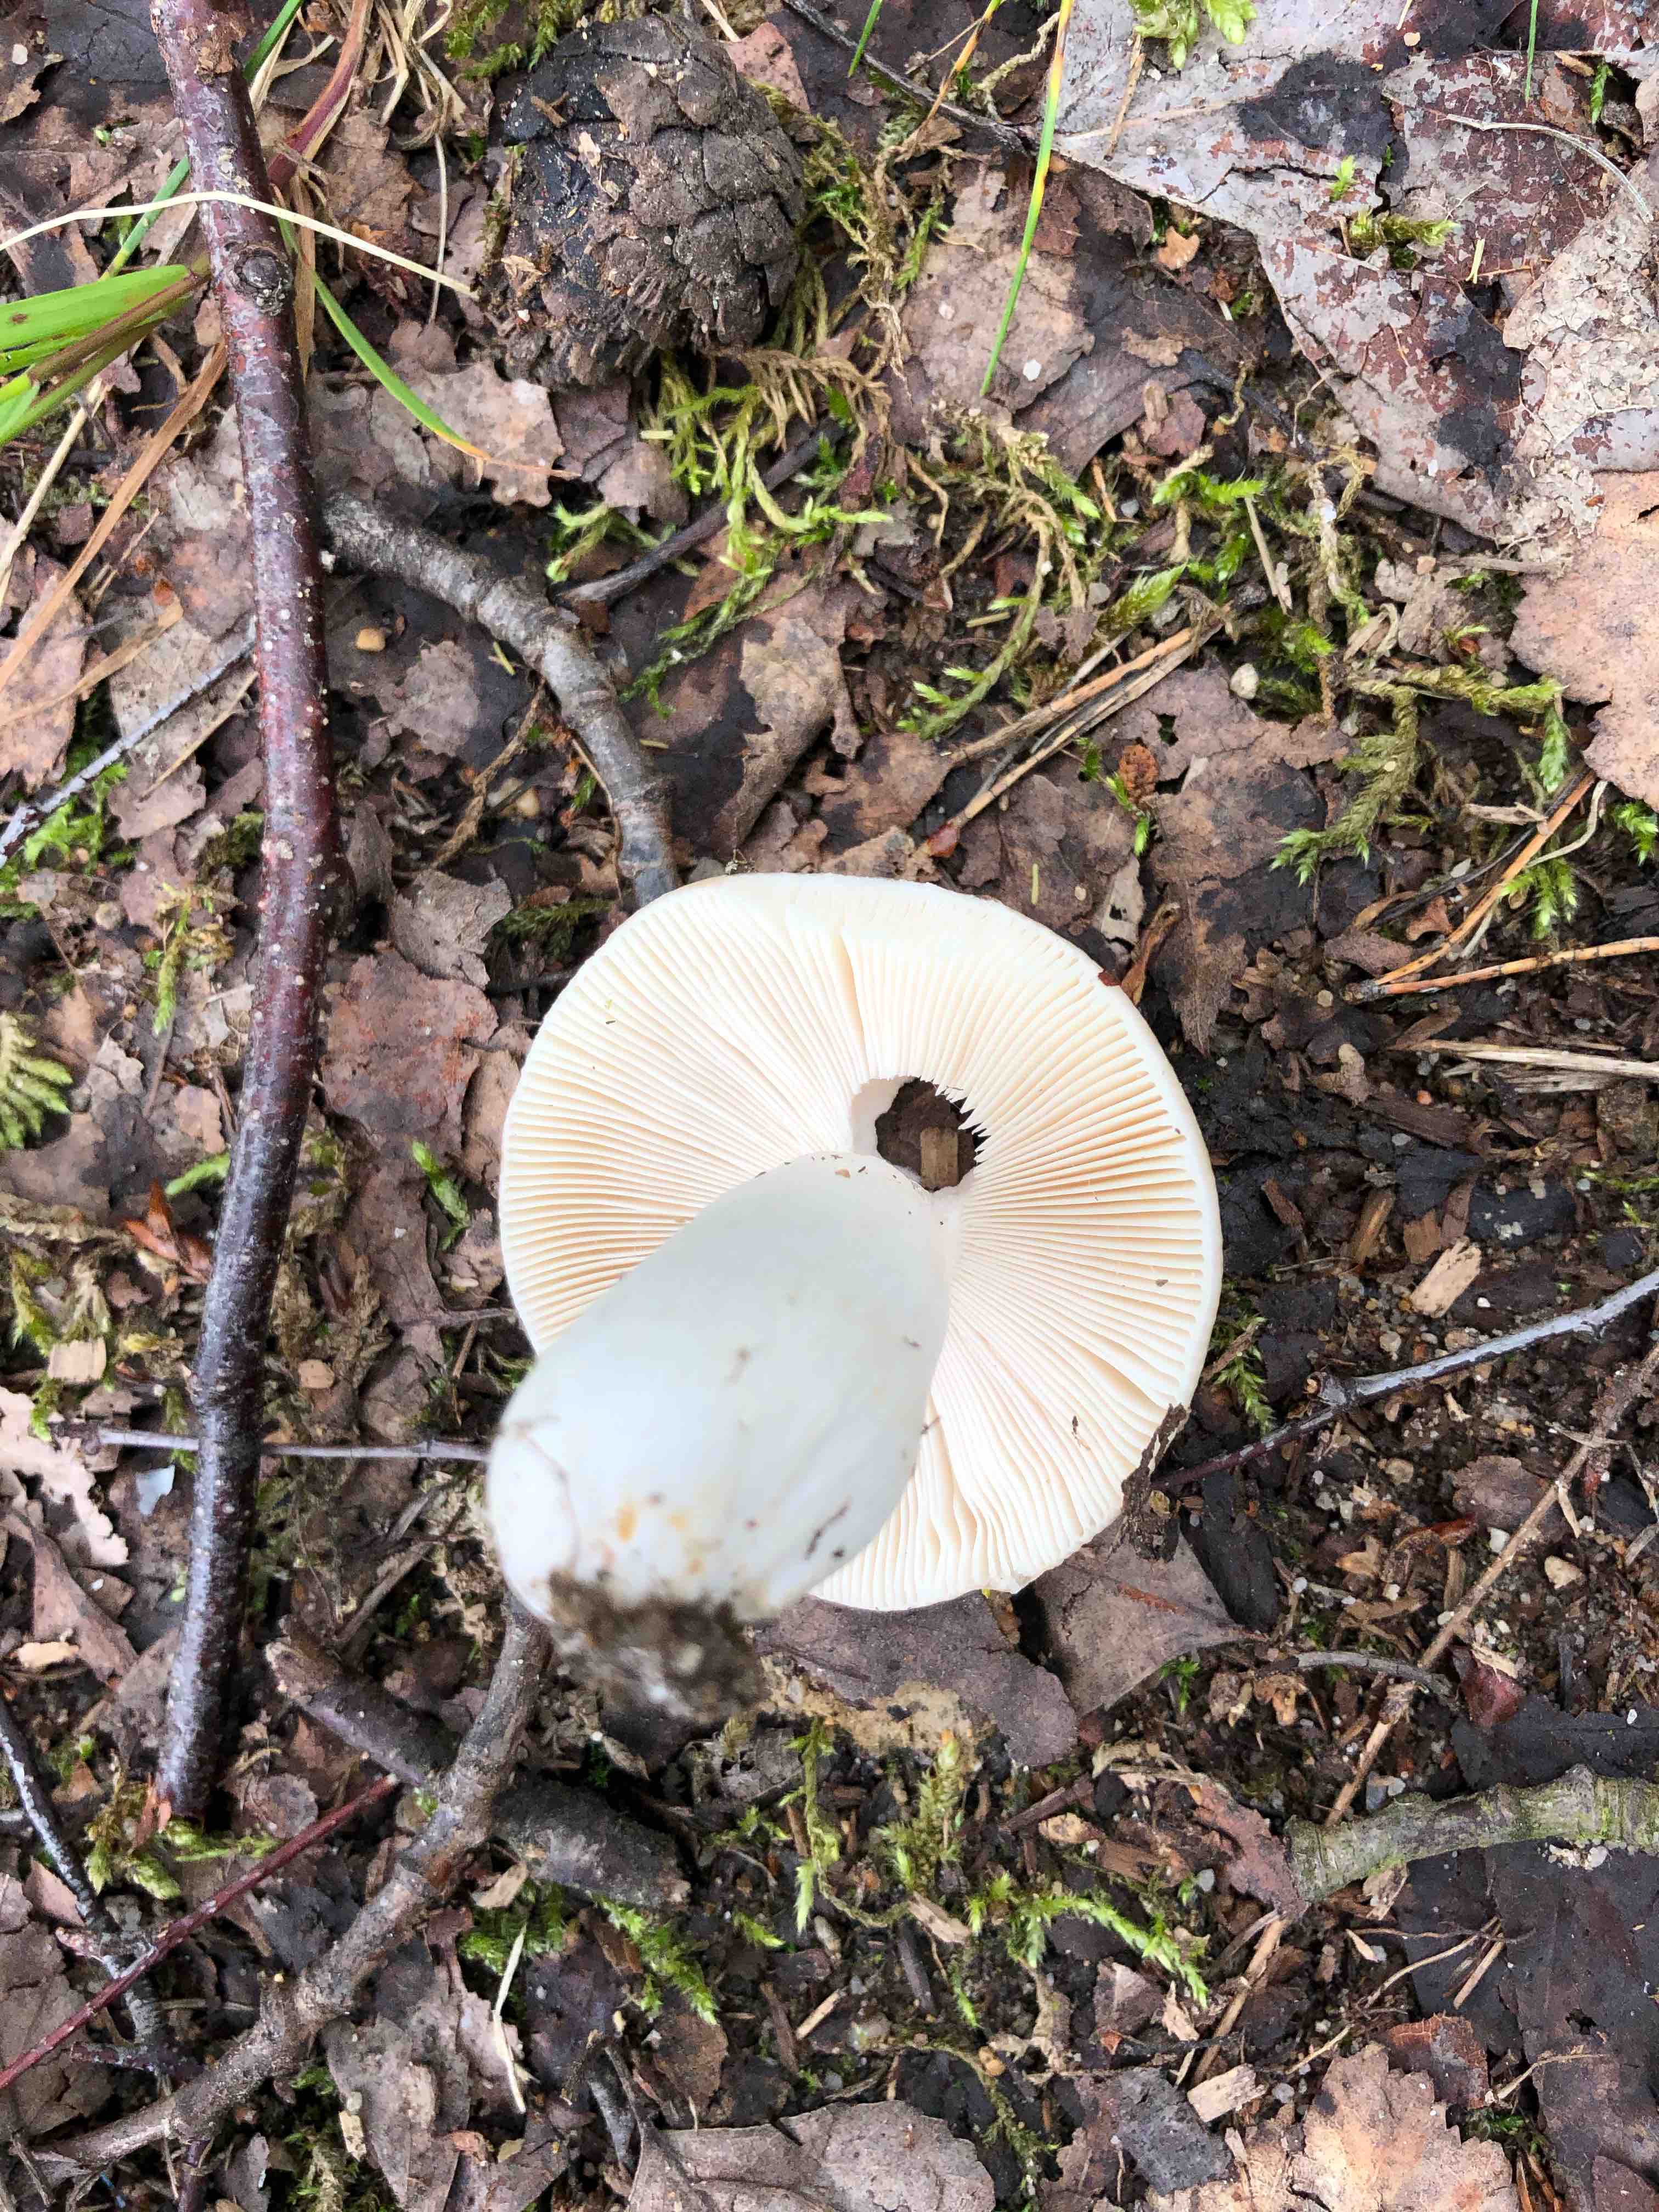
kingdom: Fungi
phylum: Basidiomycota
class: Agaricomycetes
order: Russulales
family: Russulaceae
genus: Russula
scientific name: Russula
